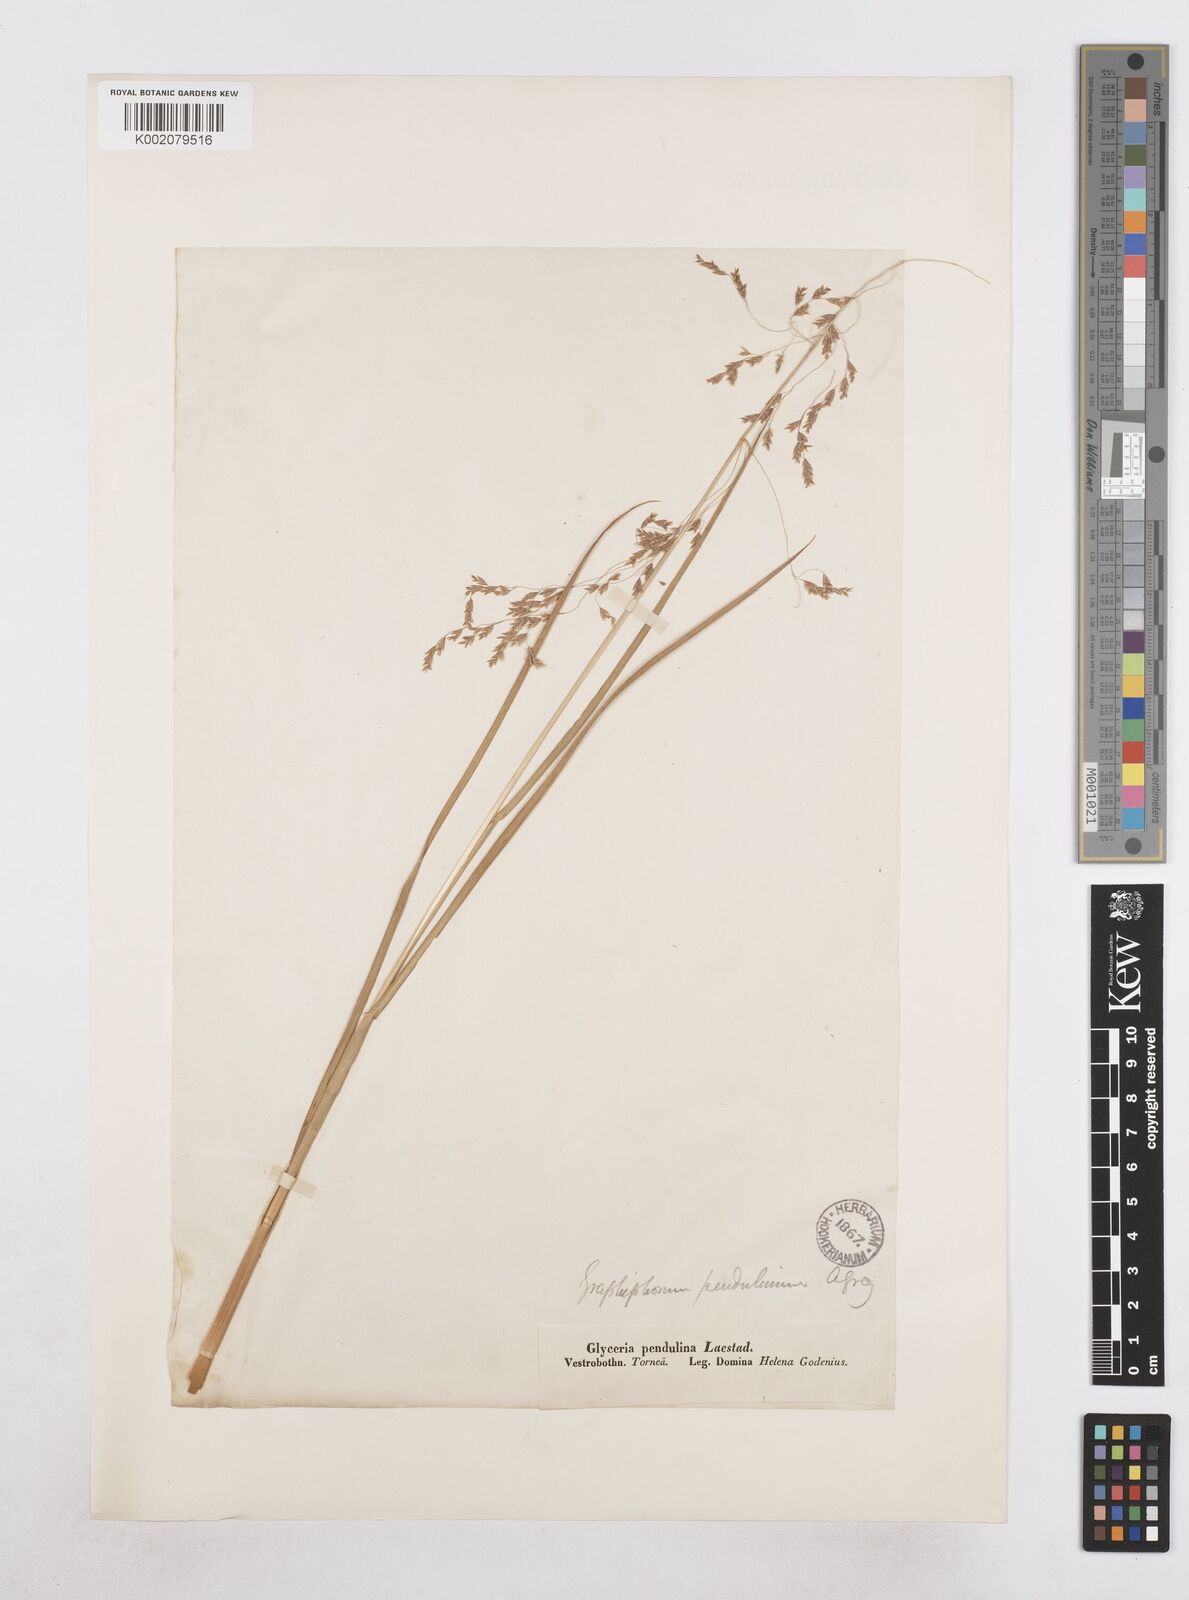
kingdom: Plantae
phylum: Tracheophyta
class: Liliopsida
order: Poales
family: Poaceae
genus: Dupontia
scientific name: Dupontia fulva
